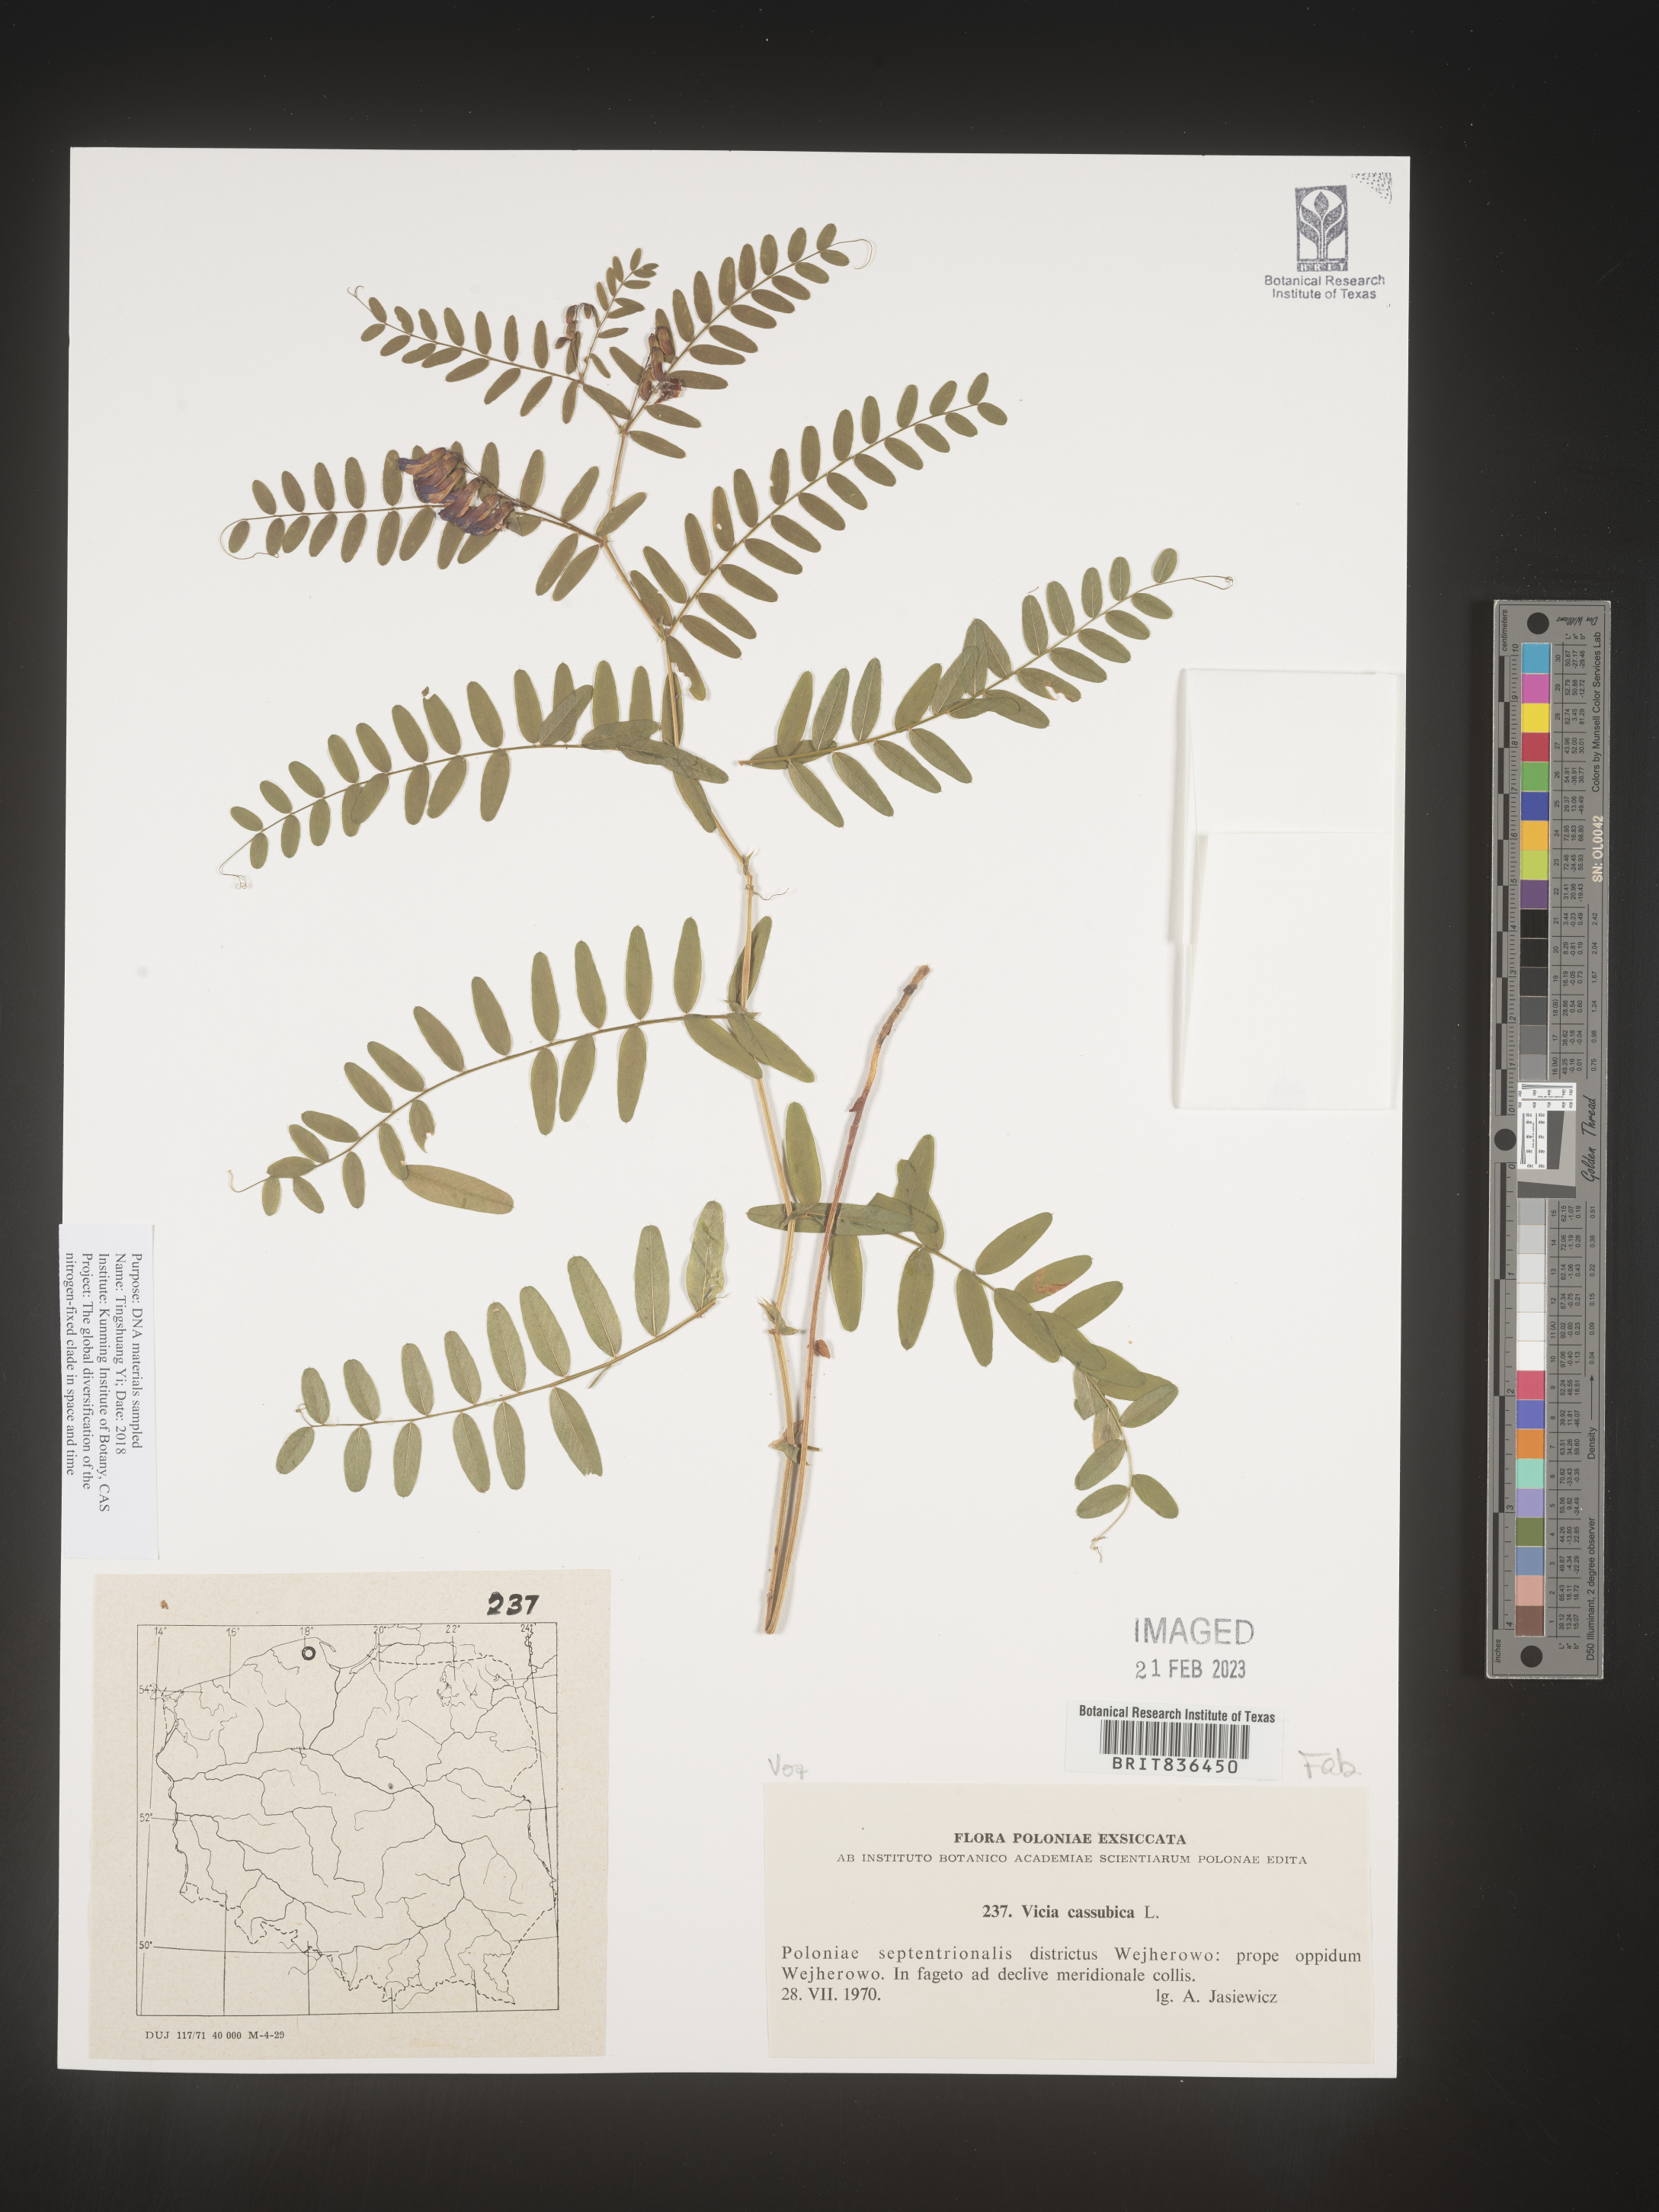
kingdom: Plantae
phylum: Tracheophyta
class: Magnoliopsida
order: Fabales
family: Fabaceae
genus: Vicia
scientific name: Vicia
